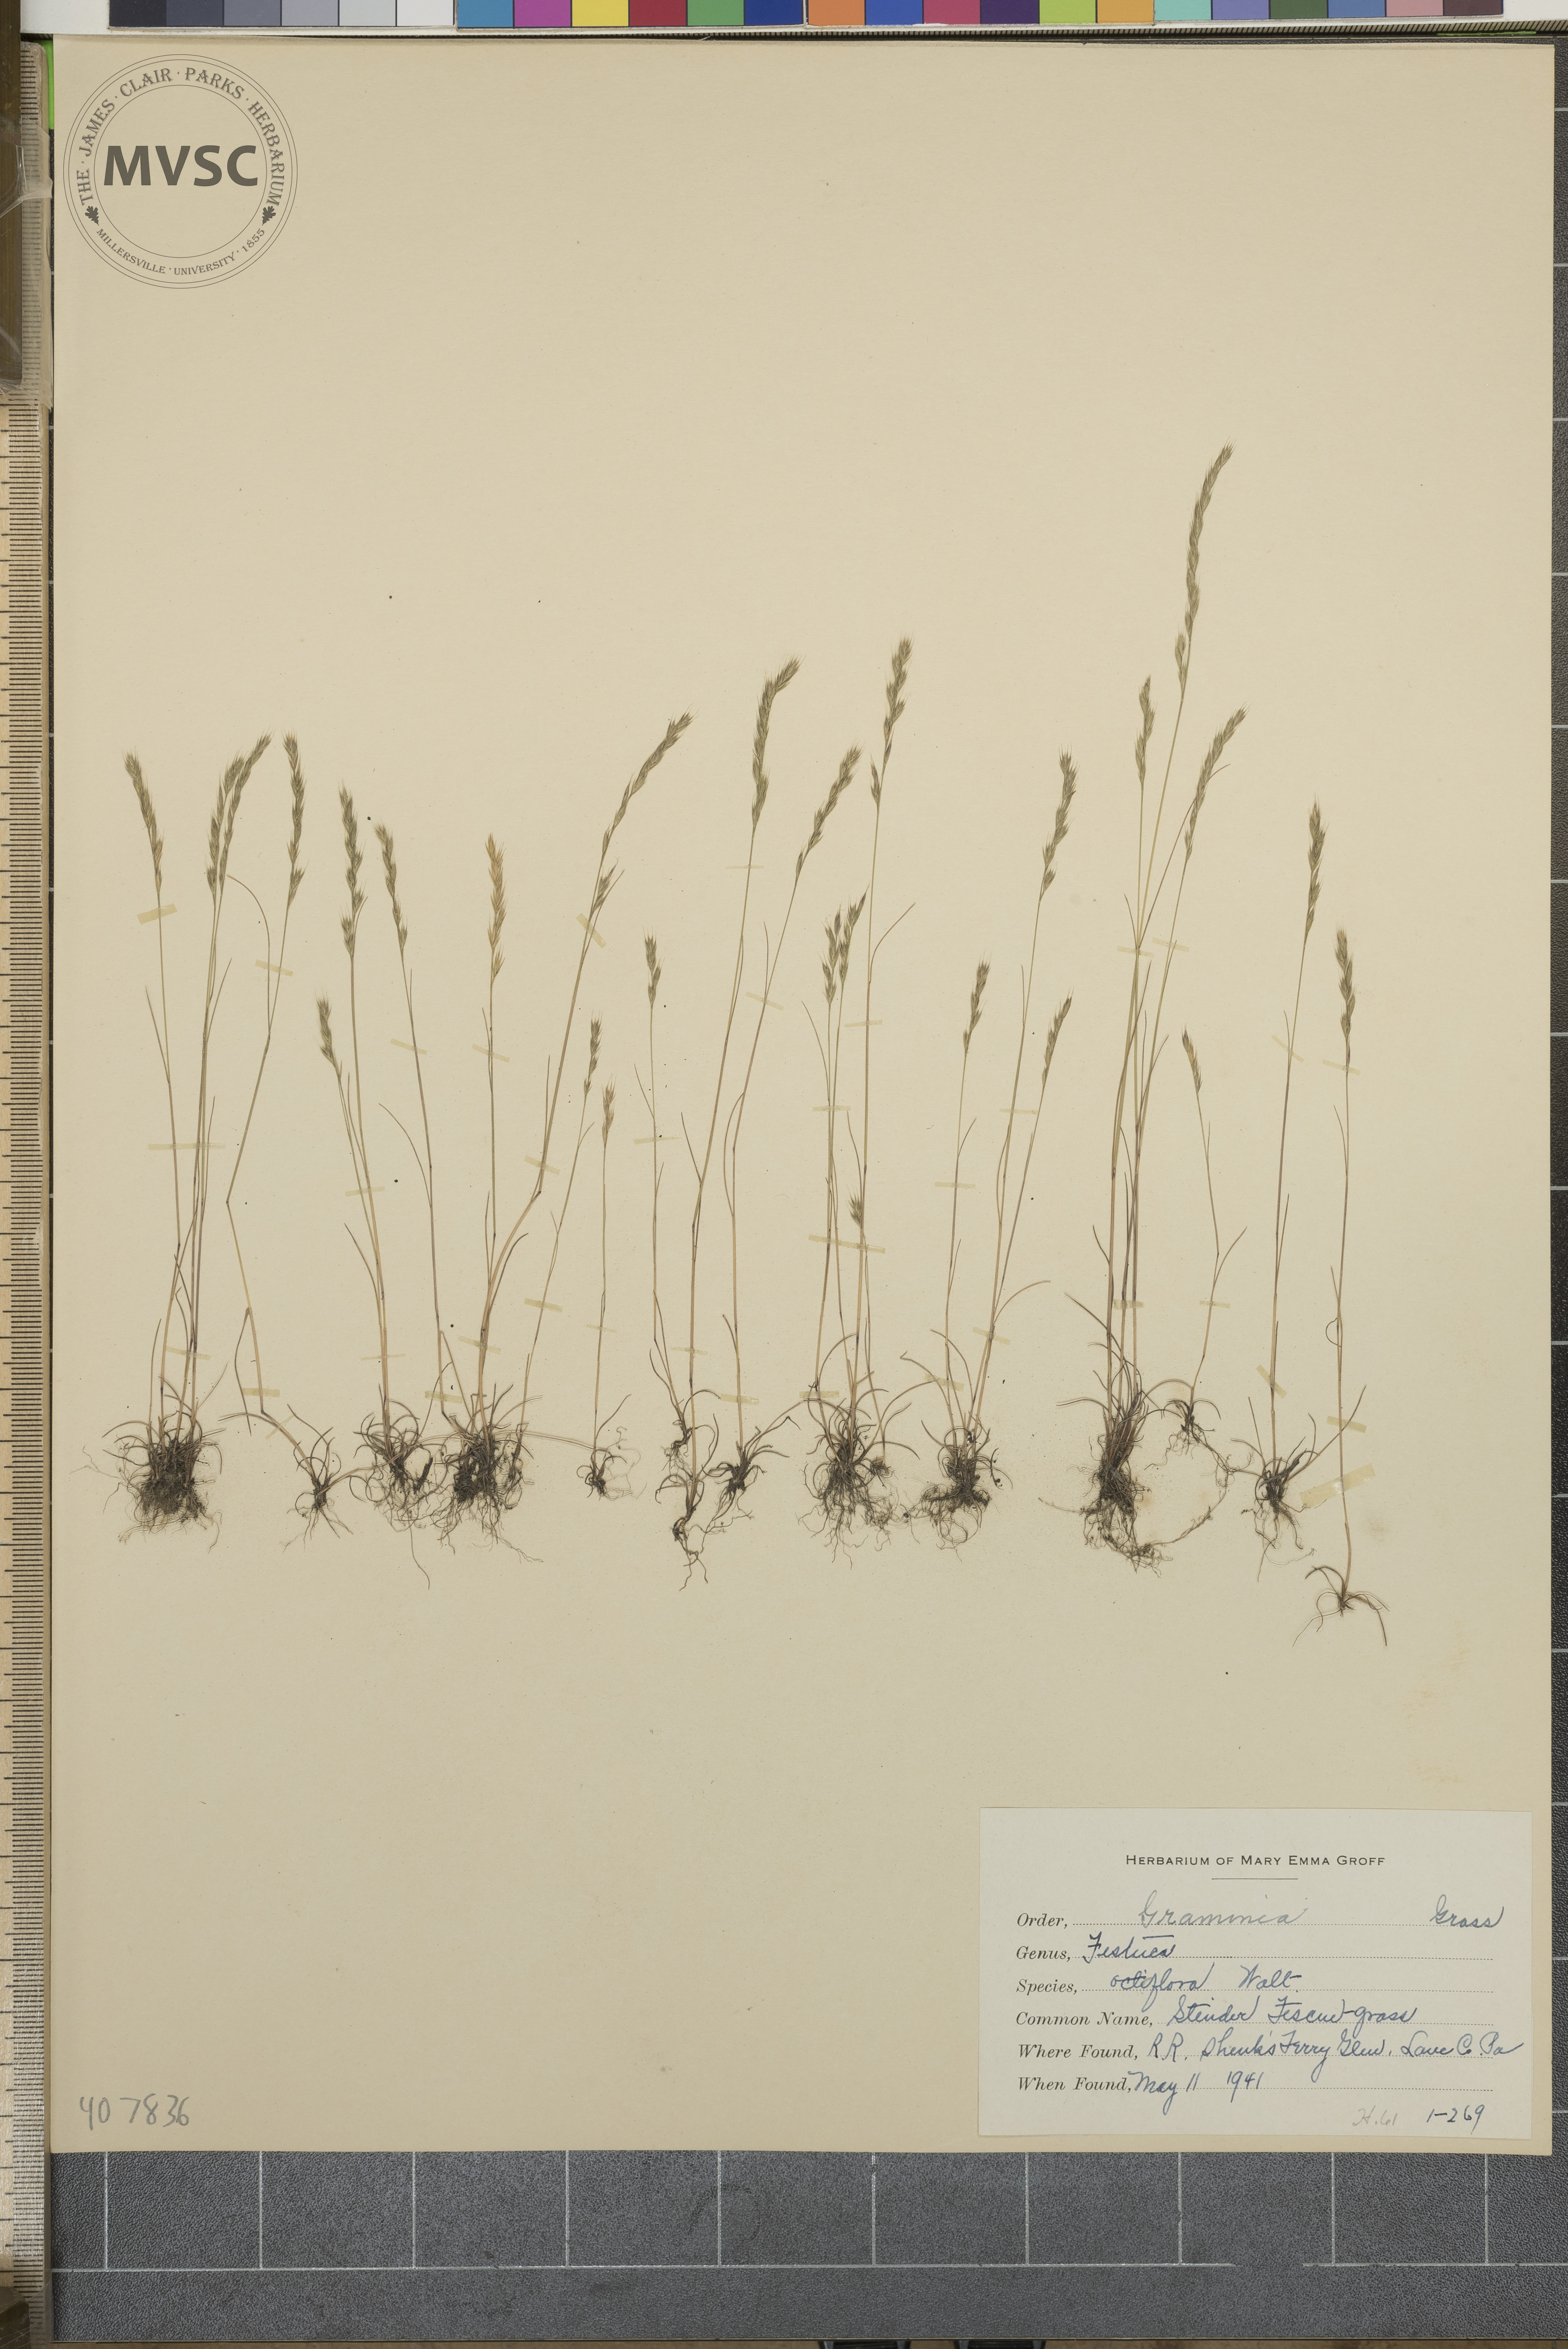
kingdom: Plantae
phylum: Tracheophyta
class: Liliopsida
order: Poales
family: Poaceae
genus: Festuca
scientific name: Festuca octoflora
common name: Sixweeks grass
